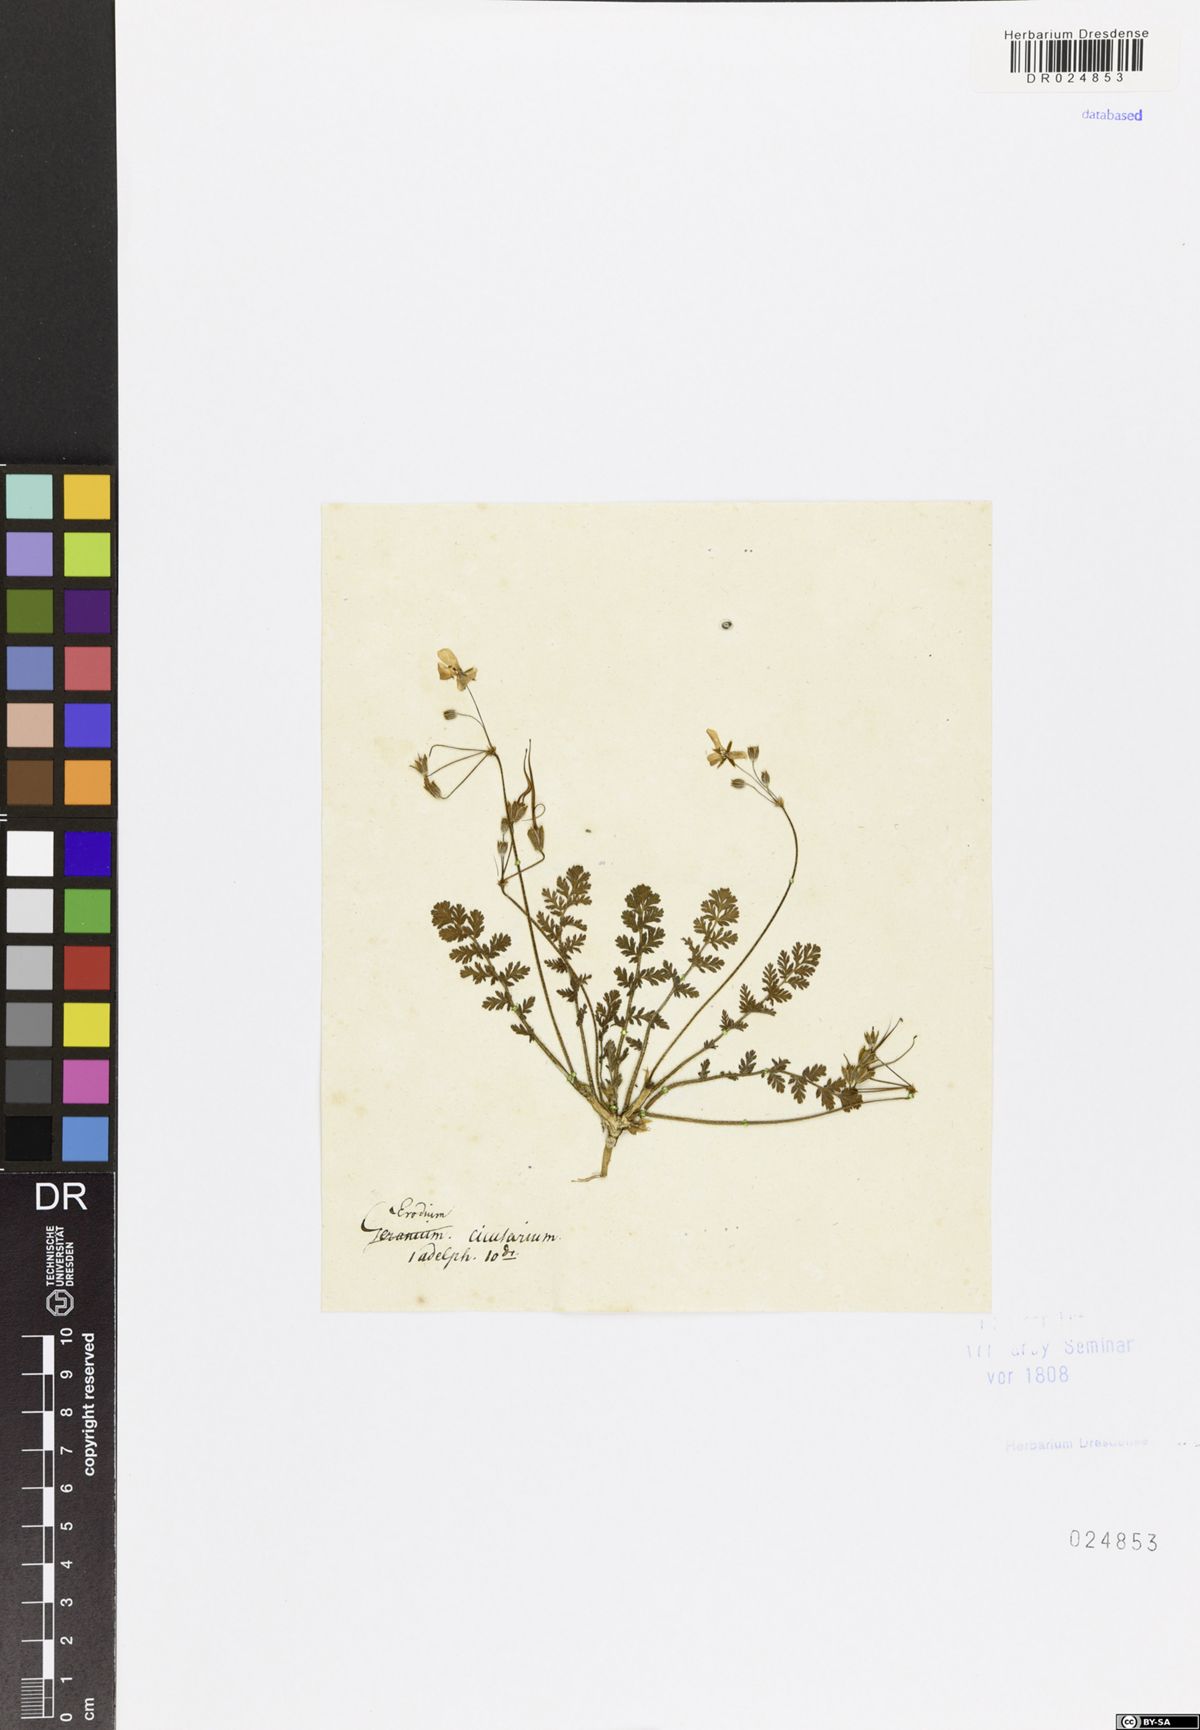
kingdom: Plantae
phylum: Tracheophyta
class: Magnoliopsida
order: Geraniales
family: Geraniaceae
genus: Erodium
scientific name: Erodium cicutarium
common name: Common stork's-bill
